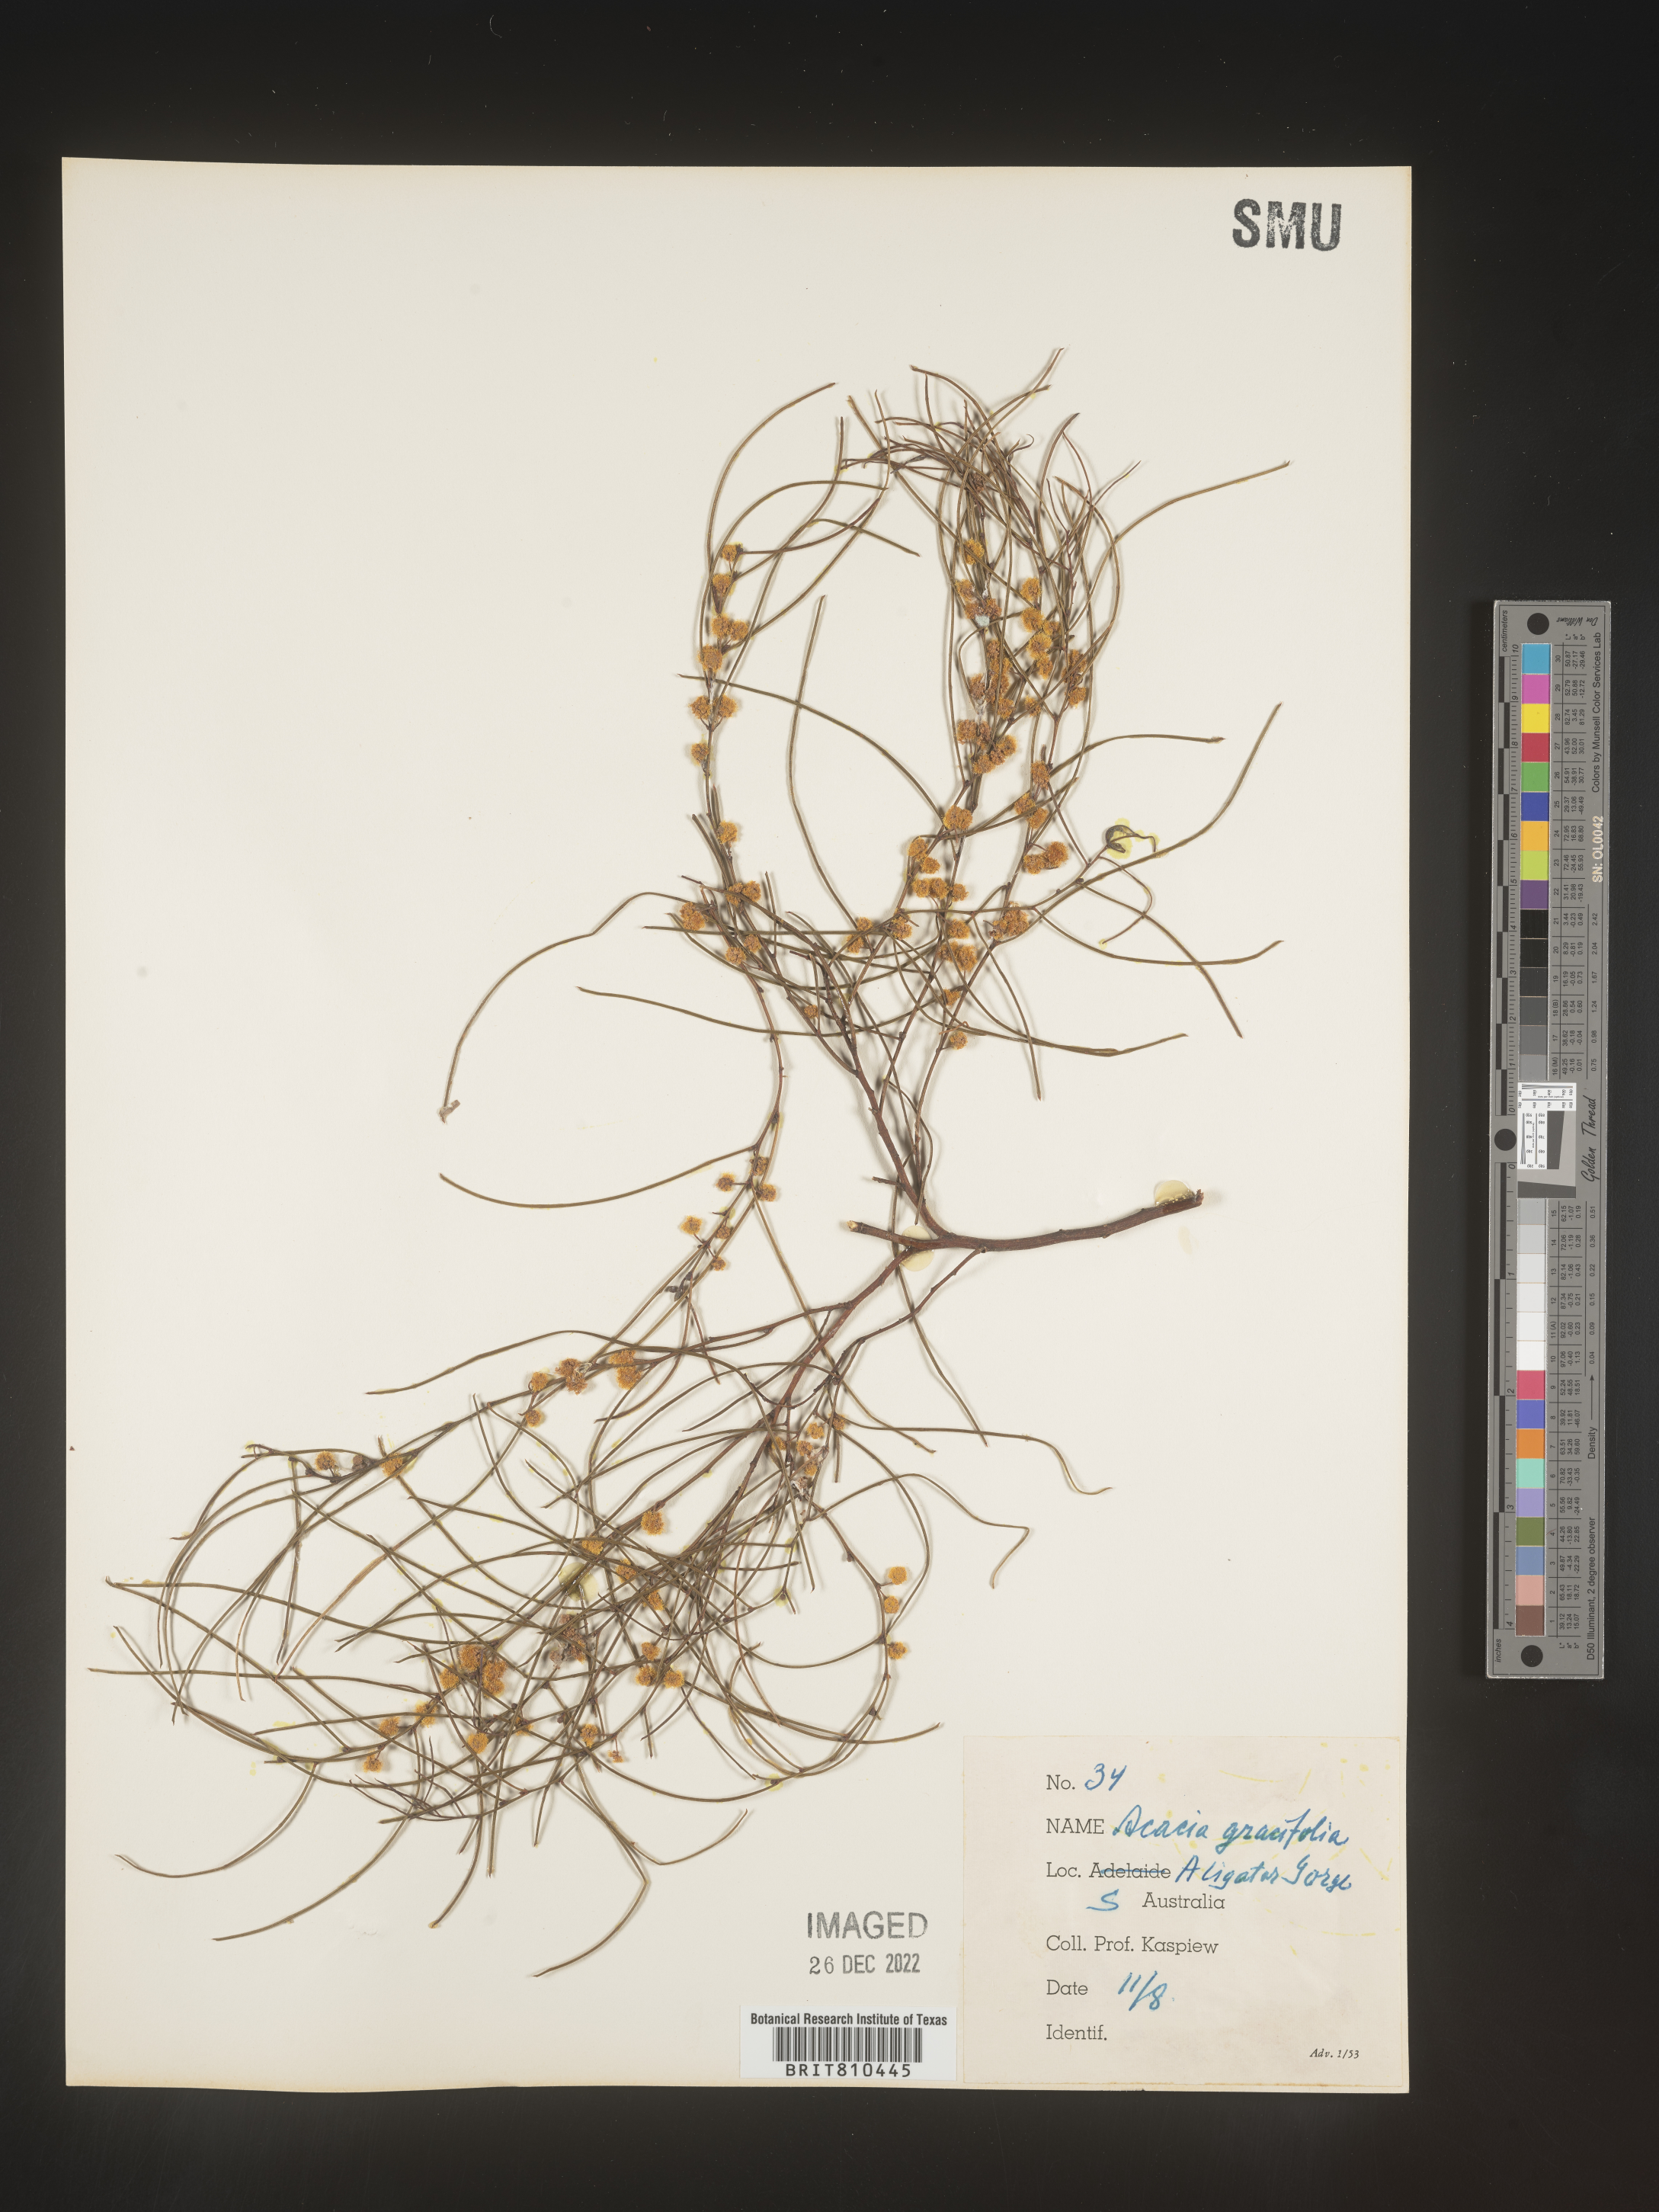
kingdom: Plantae
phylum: Tracheophyta
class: Magnoliopsida
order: Fabales
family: Fabaceae
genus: Acacia
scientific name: Acacia
